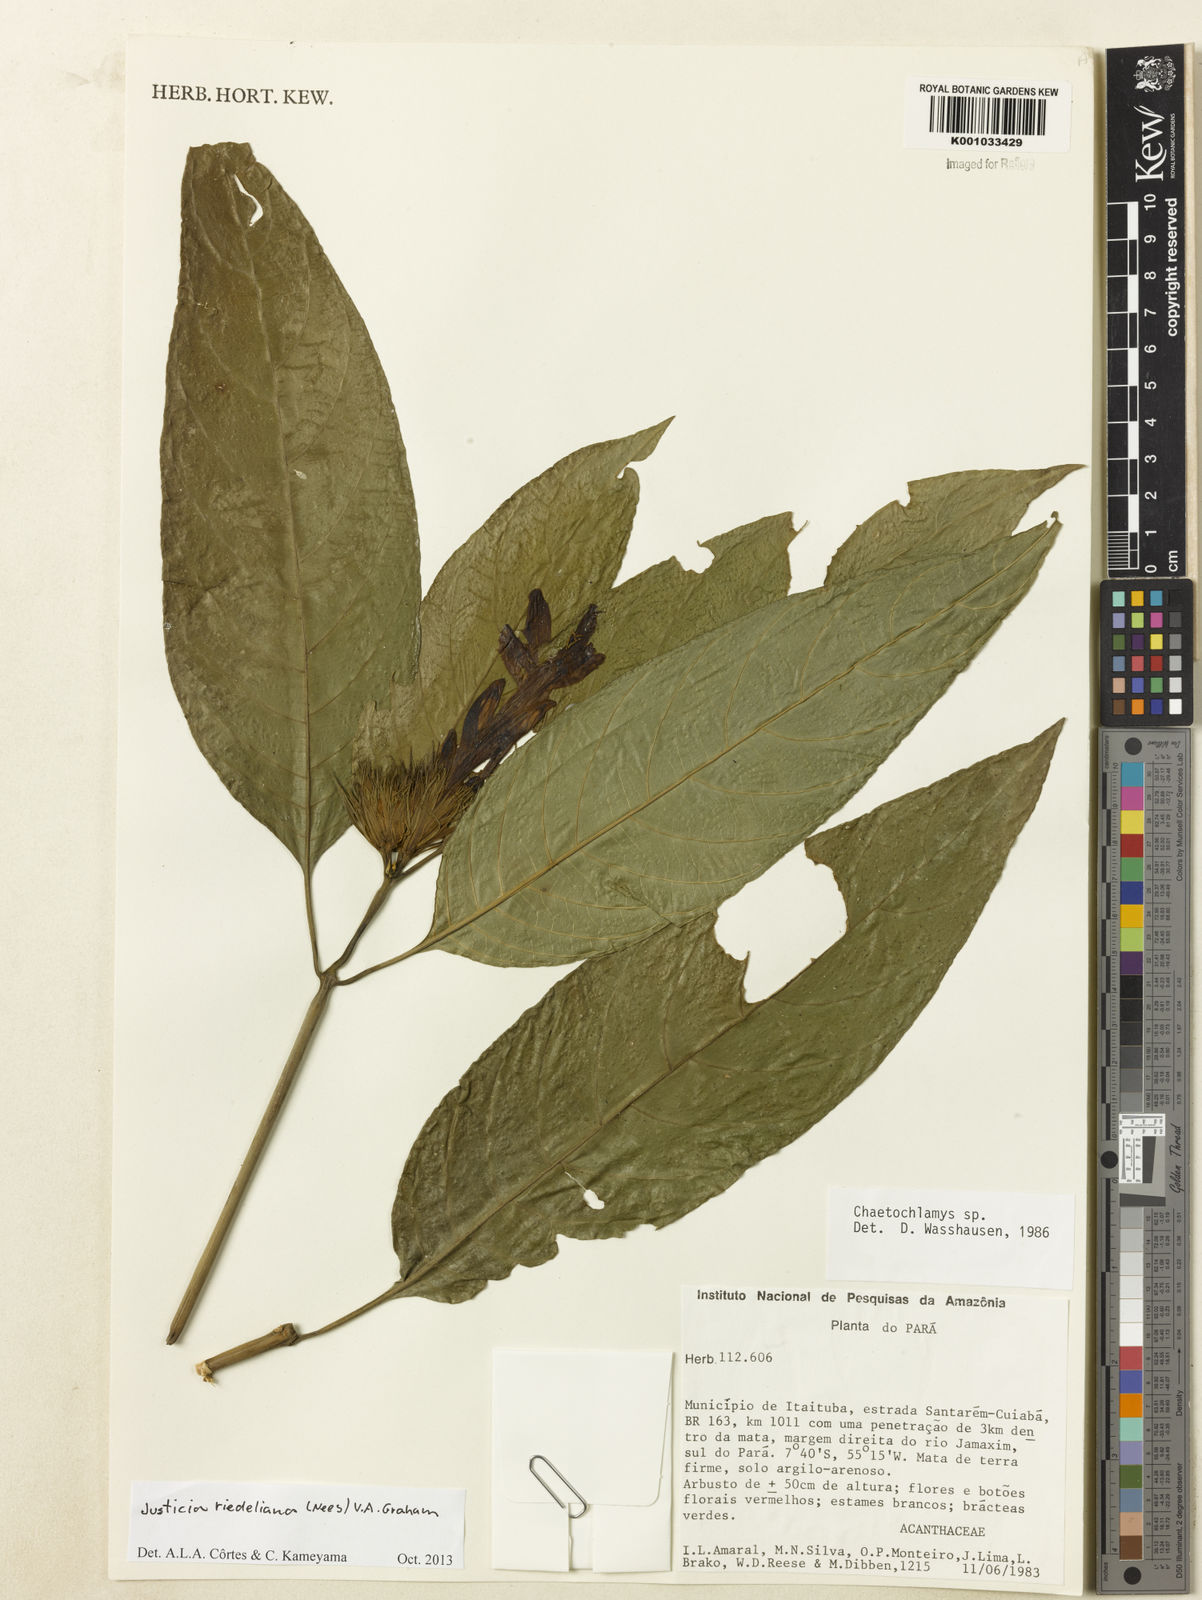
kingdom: Plantae
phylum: Tracheophyta
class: Magnoliopsida
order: Lamiales
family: Acanthaceae
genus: Justicia
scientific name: Justicia riedeliana
